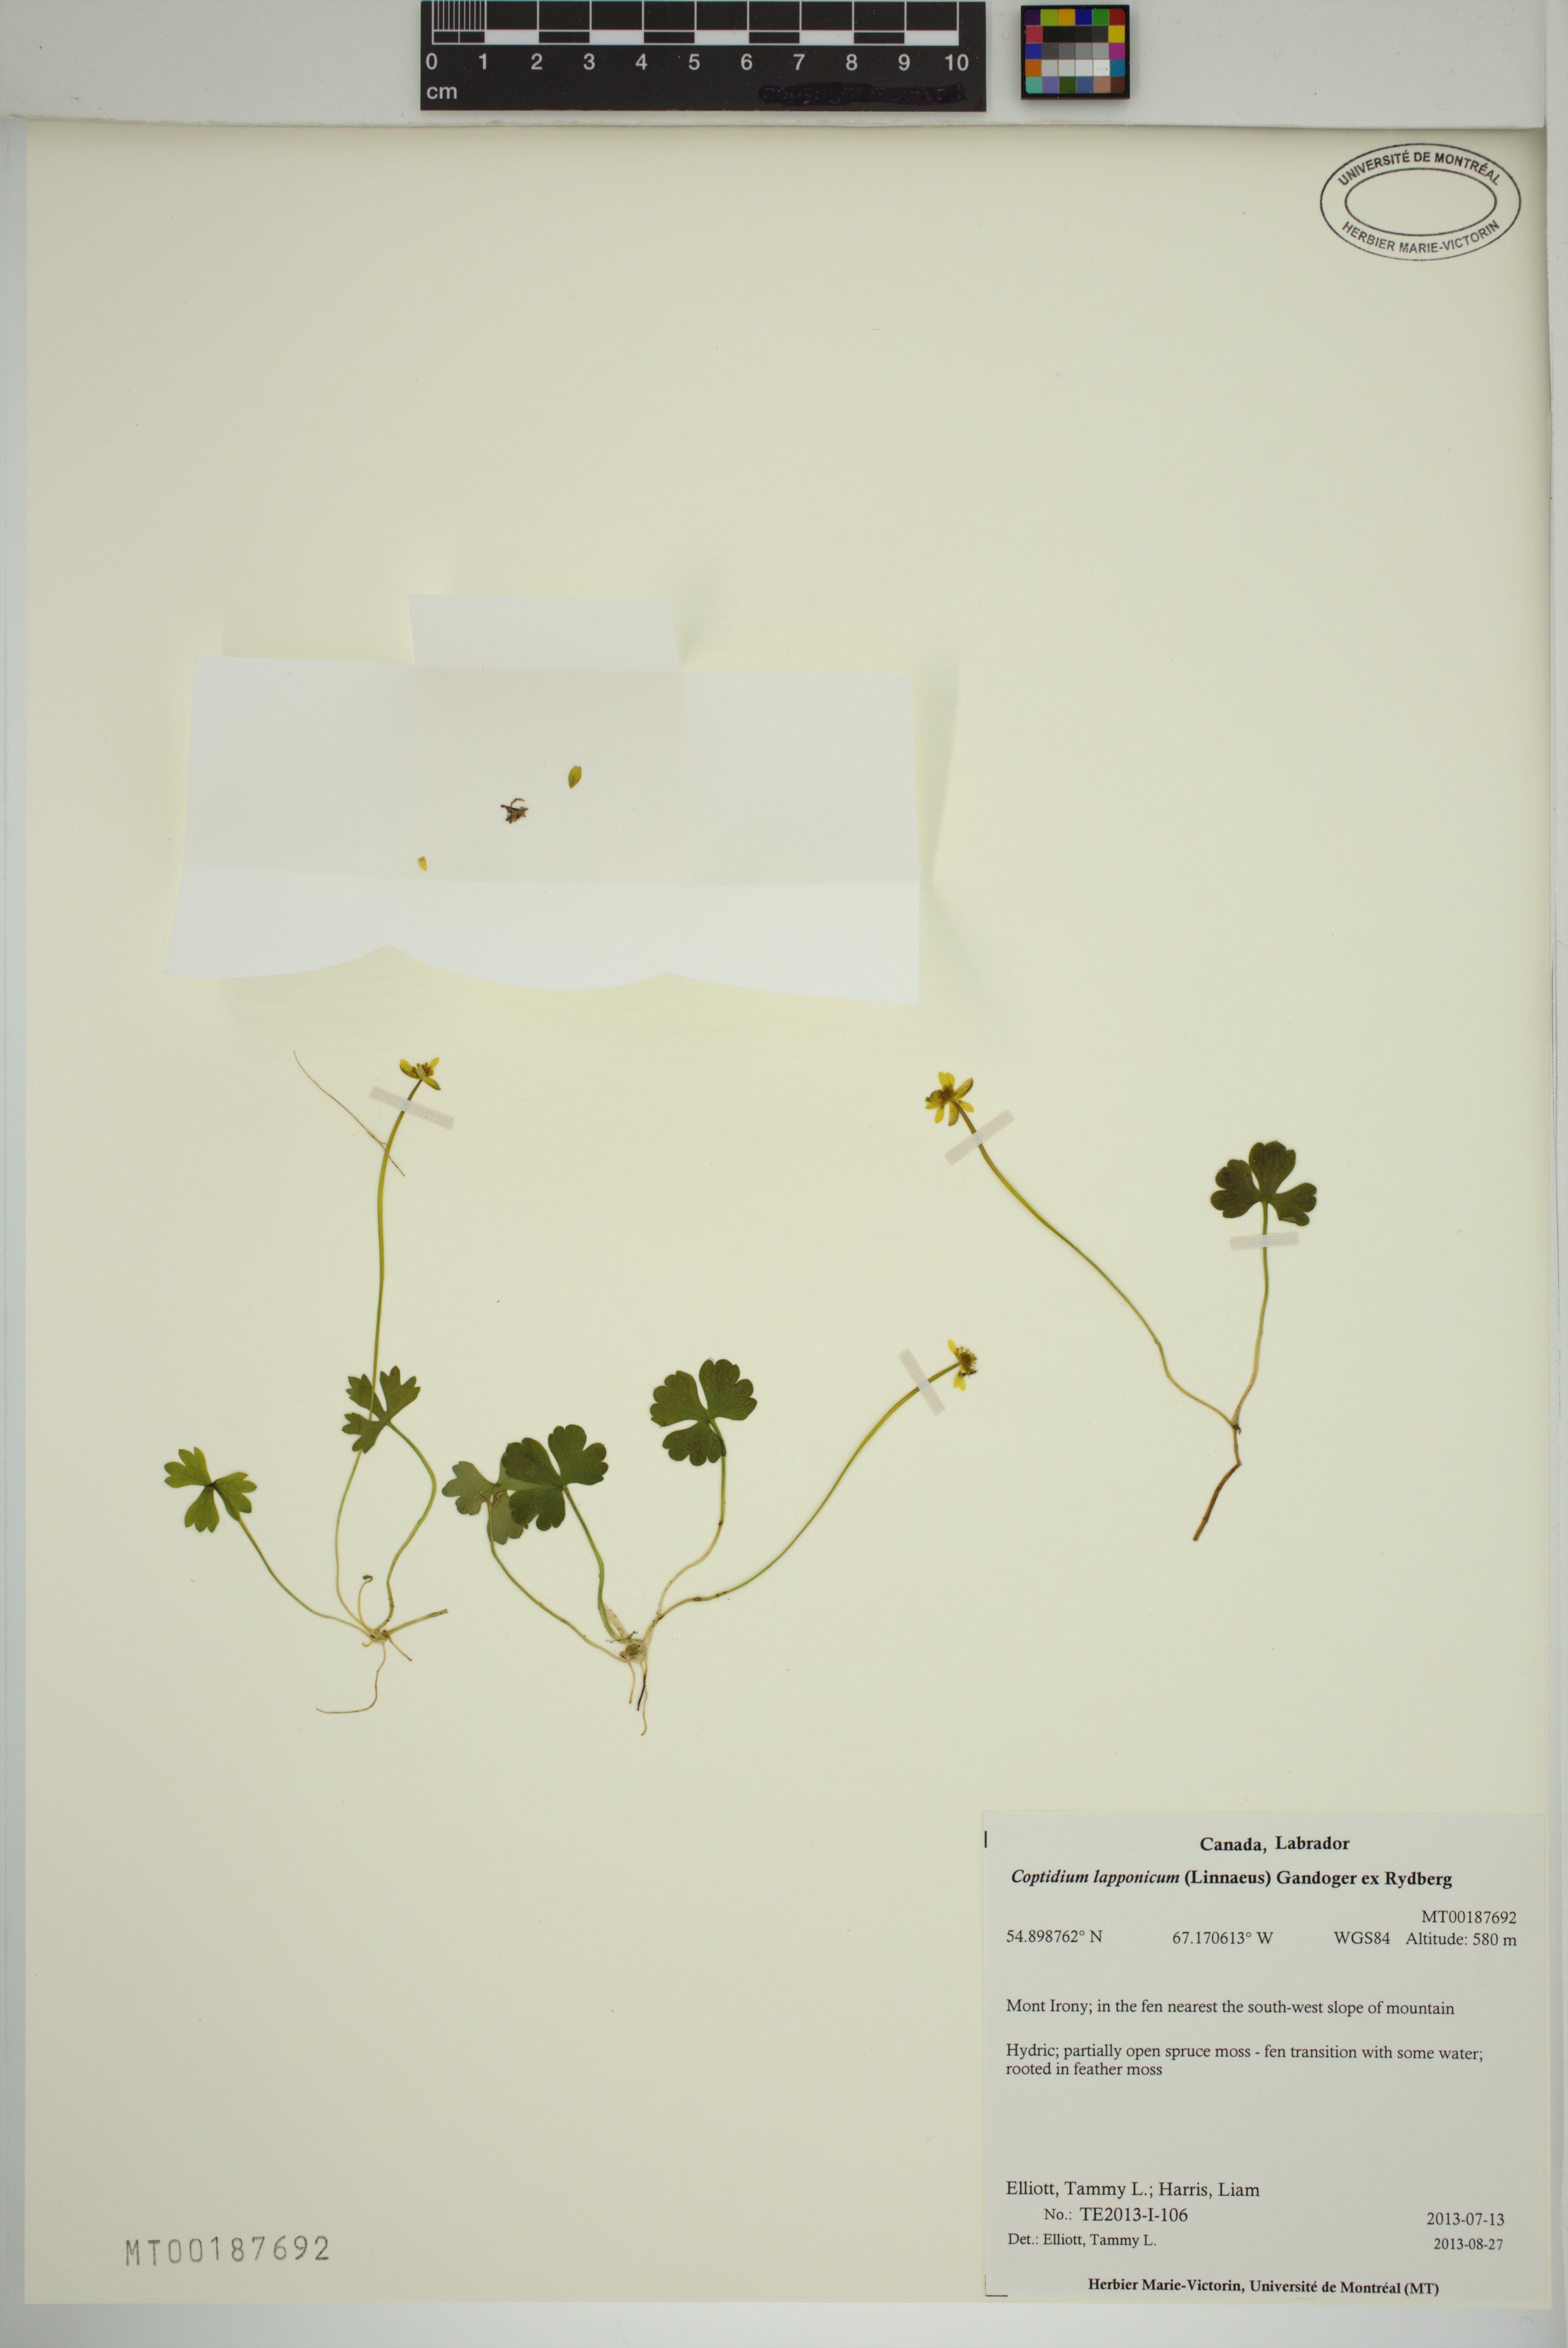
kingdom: Plantae
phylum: Tracheophyta
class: Magnoliopsida
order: Ranunculales
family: Ranunculaceae
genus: Coptidium
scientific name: Coptidium lapponicum
